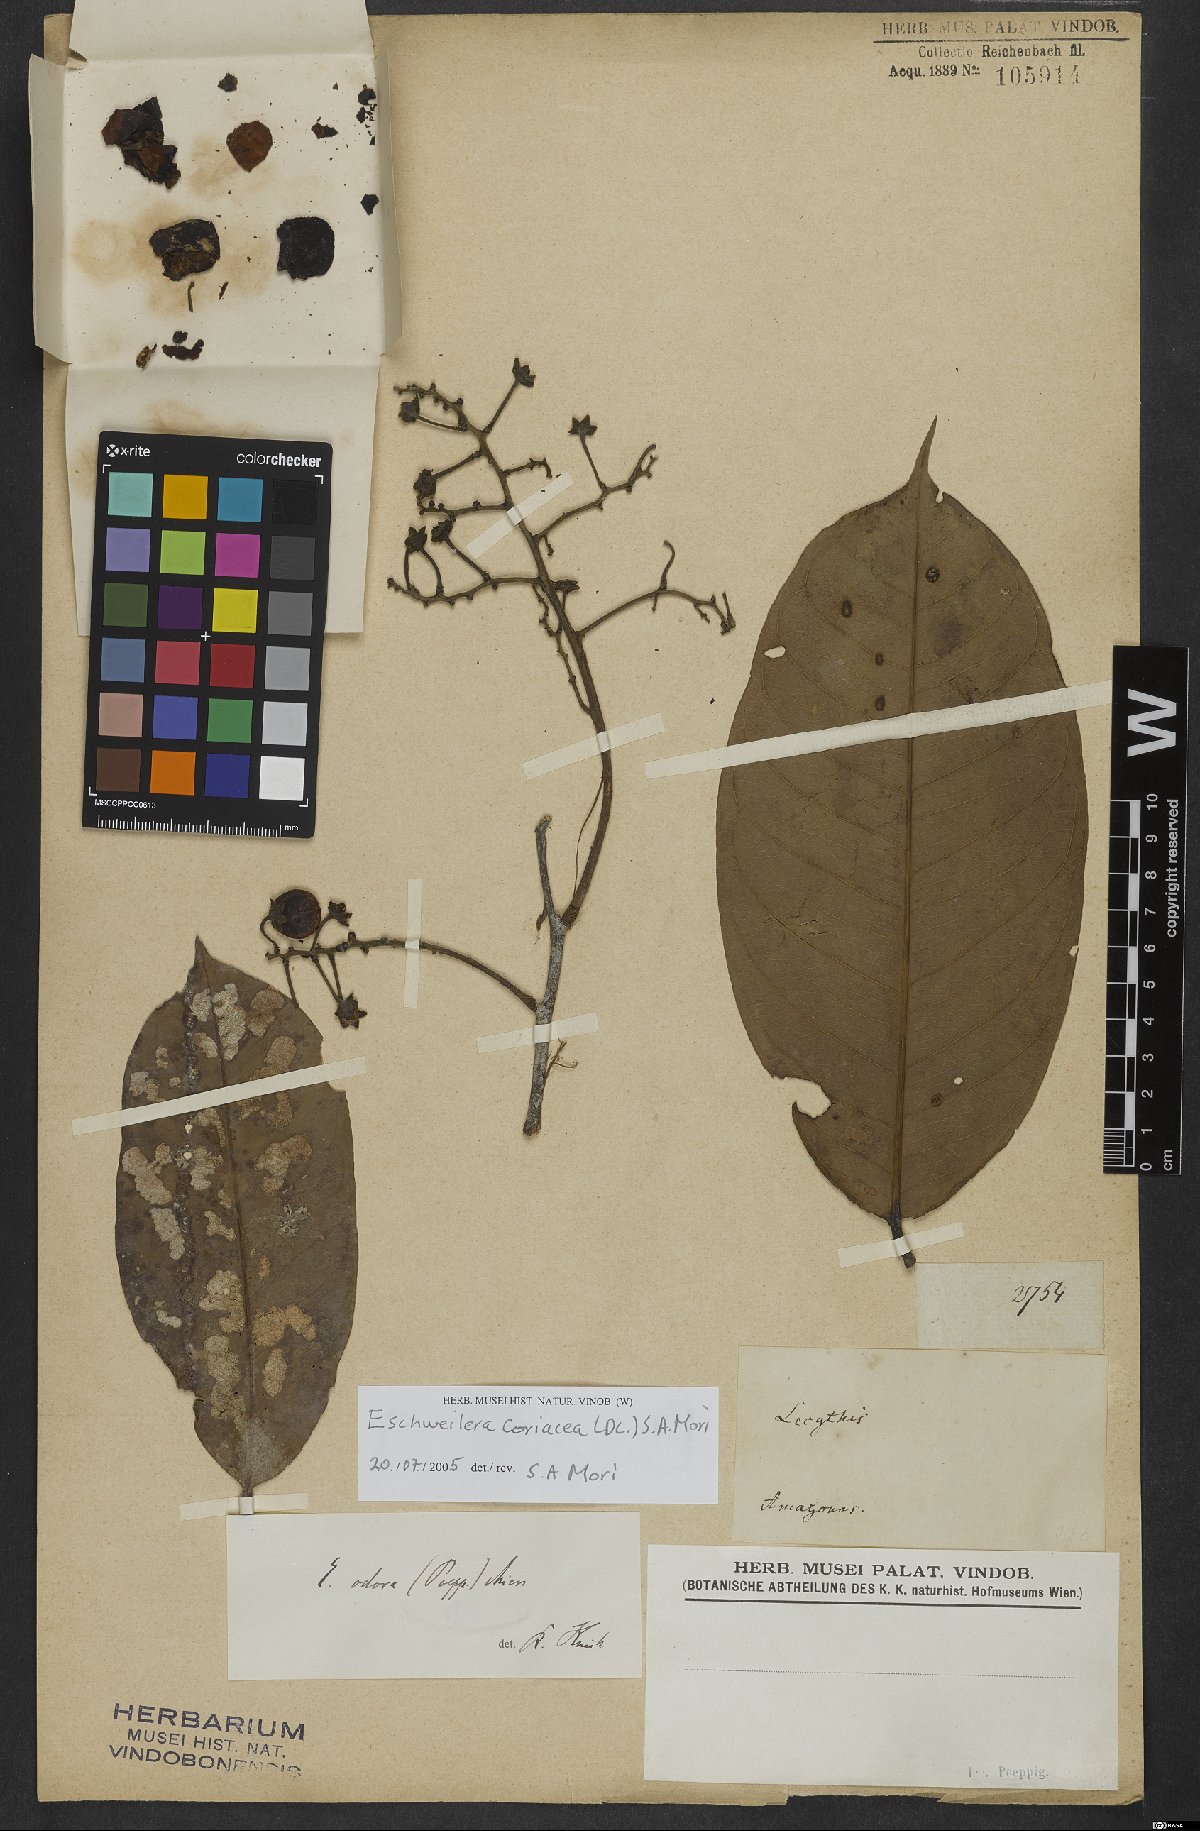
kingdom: Plantae
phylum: Tracheophyta
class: Magnoliopsida
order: Ericales
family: Lecythidaceae
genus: Eschweilera
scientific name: Eschweilera coriacea
